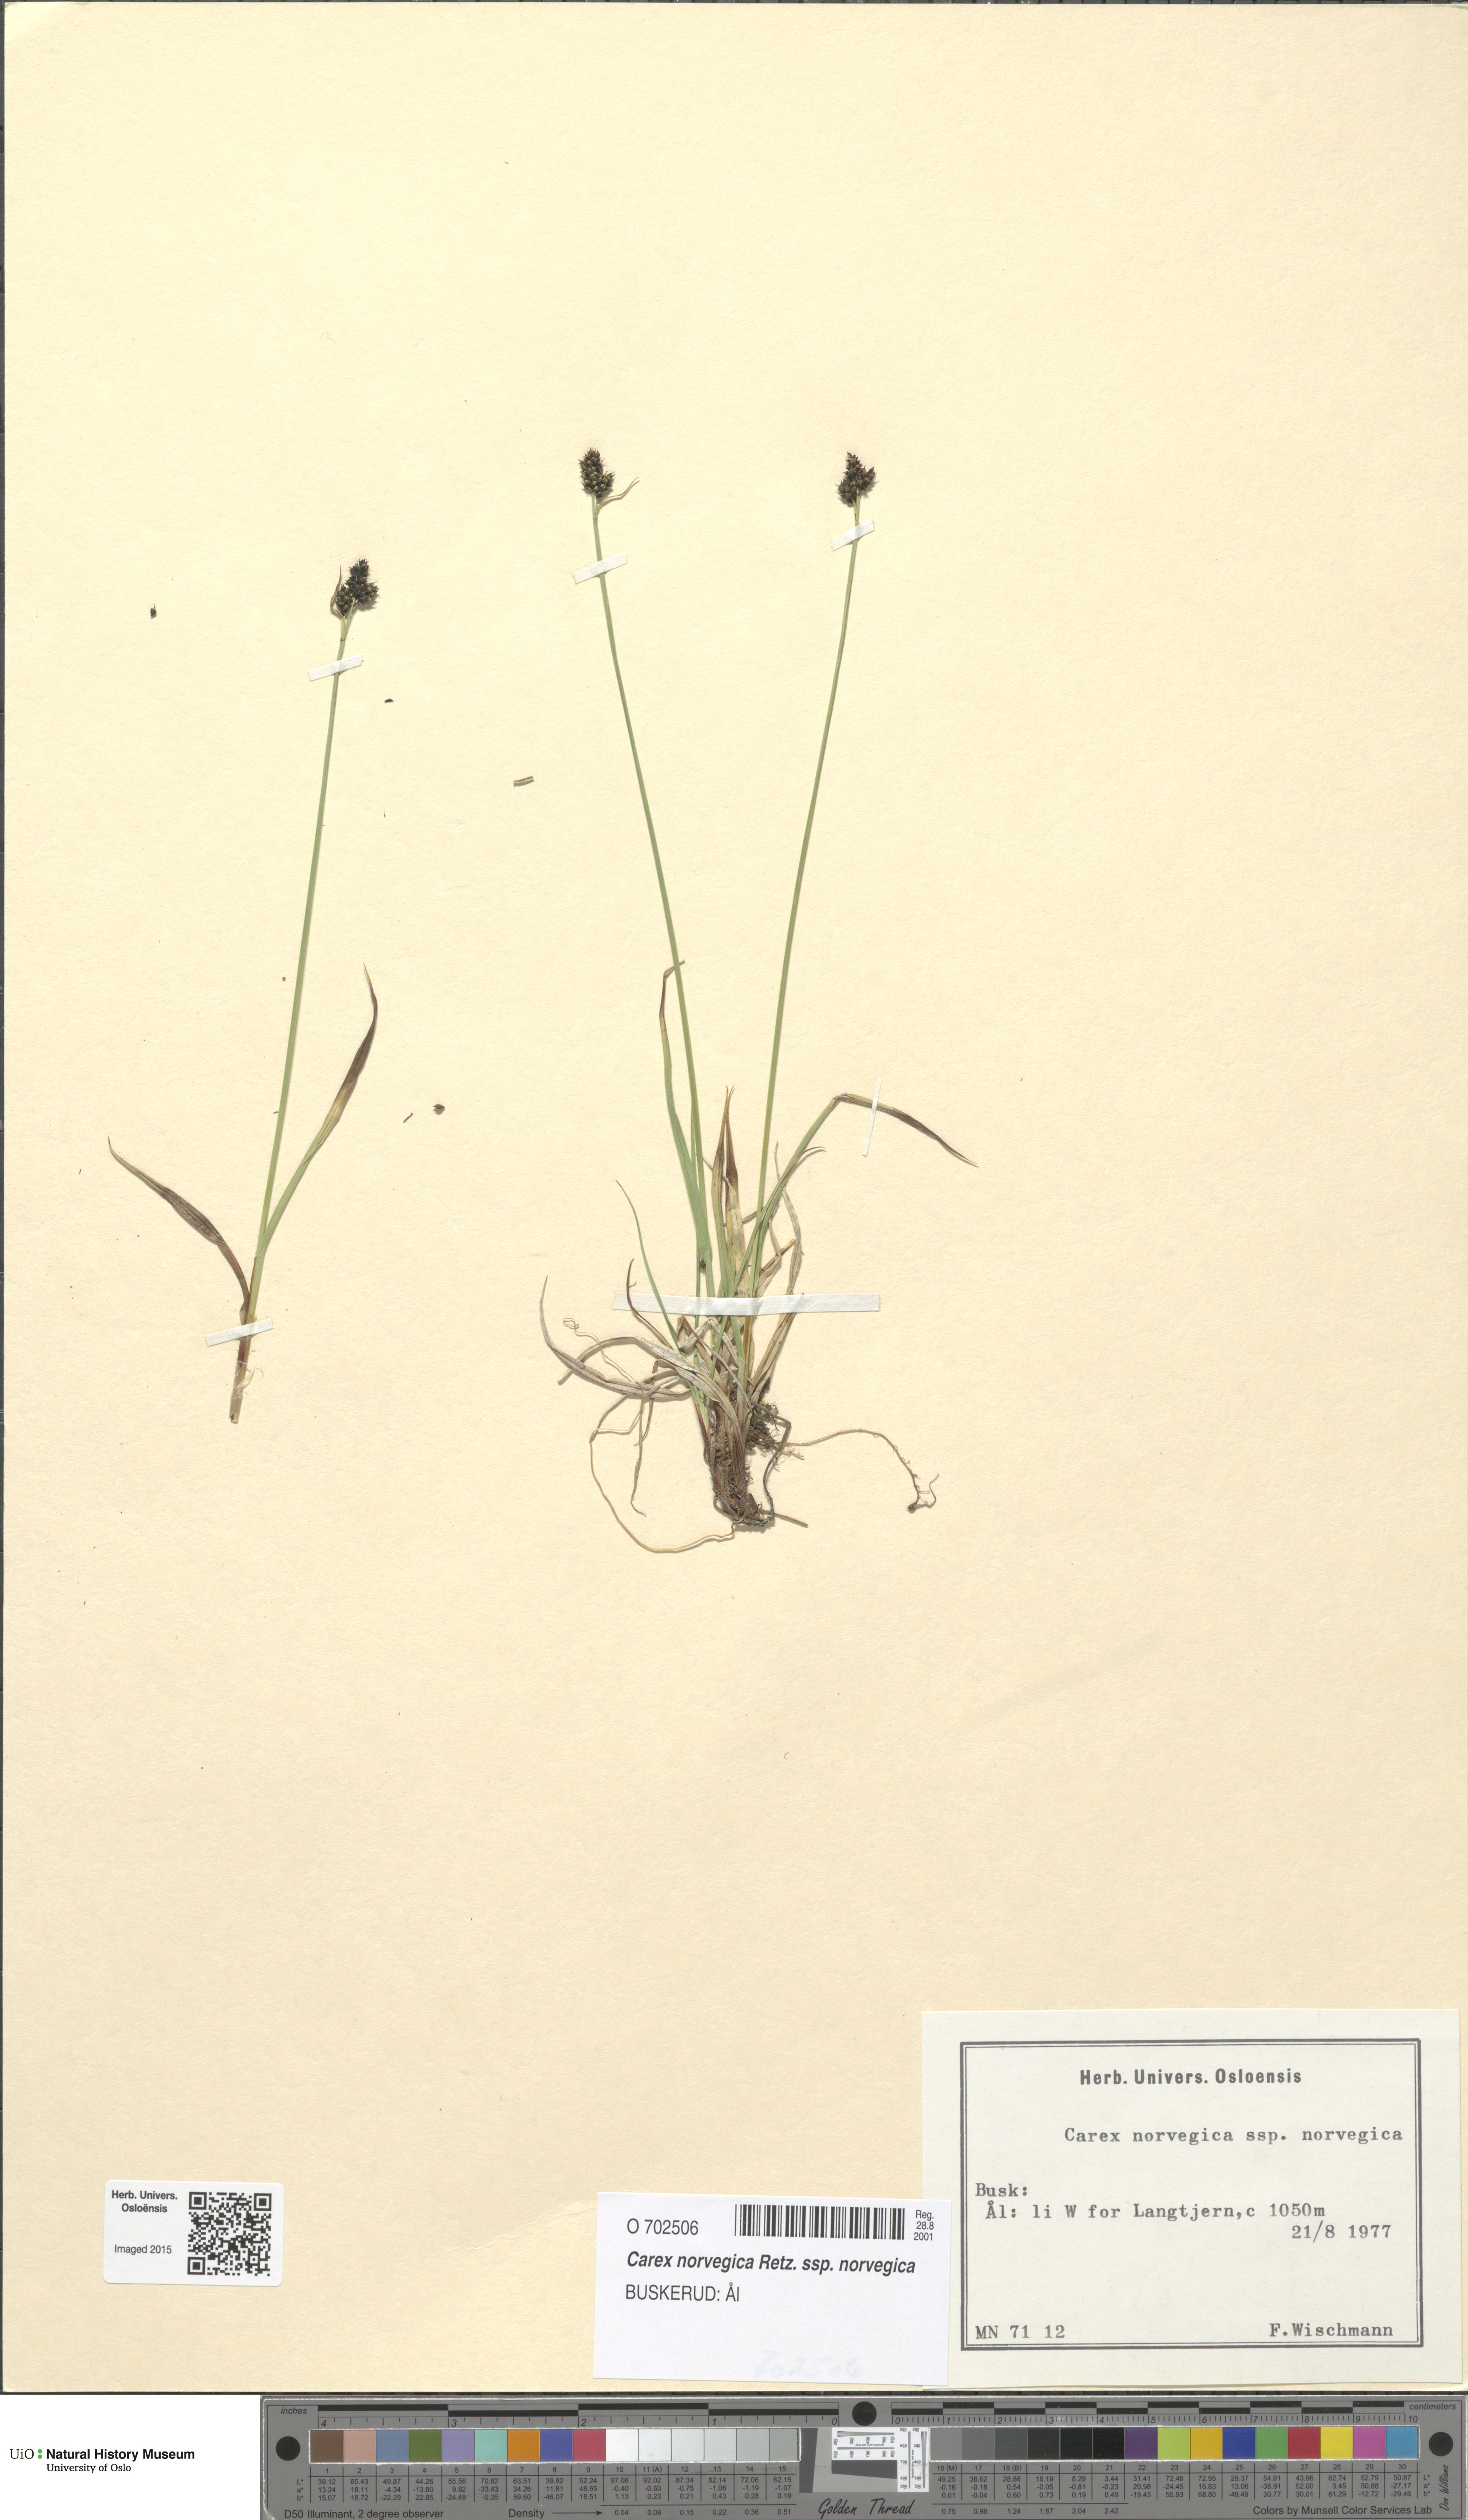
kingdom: Plantae
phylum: Tracheophyta
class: Liliopsida
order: Poales
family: Cyperaceae
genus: Carex
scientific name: Carex norvegica
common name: Close-headed alpine-sedge
